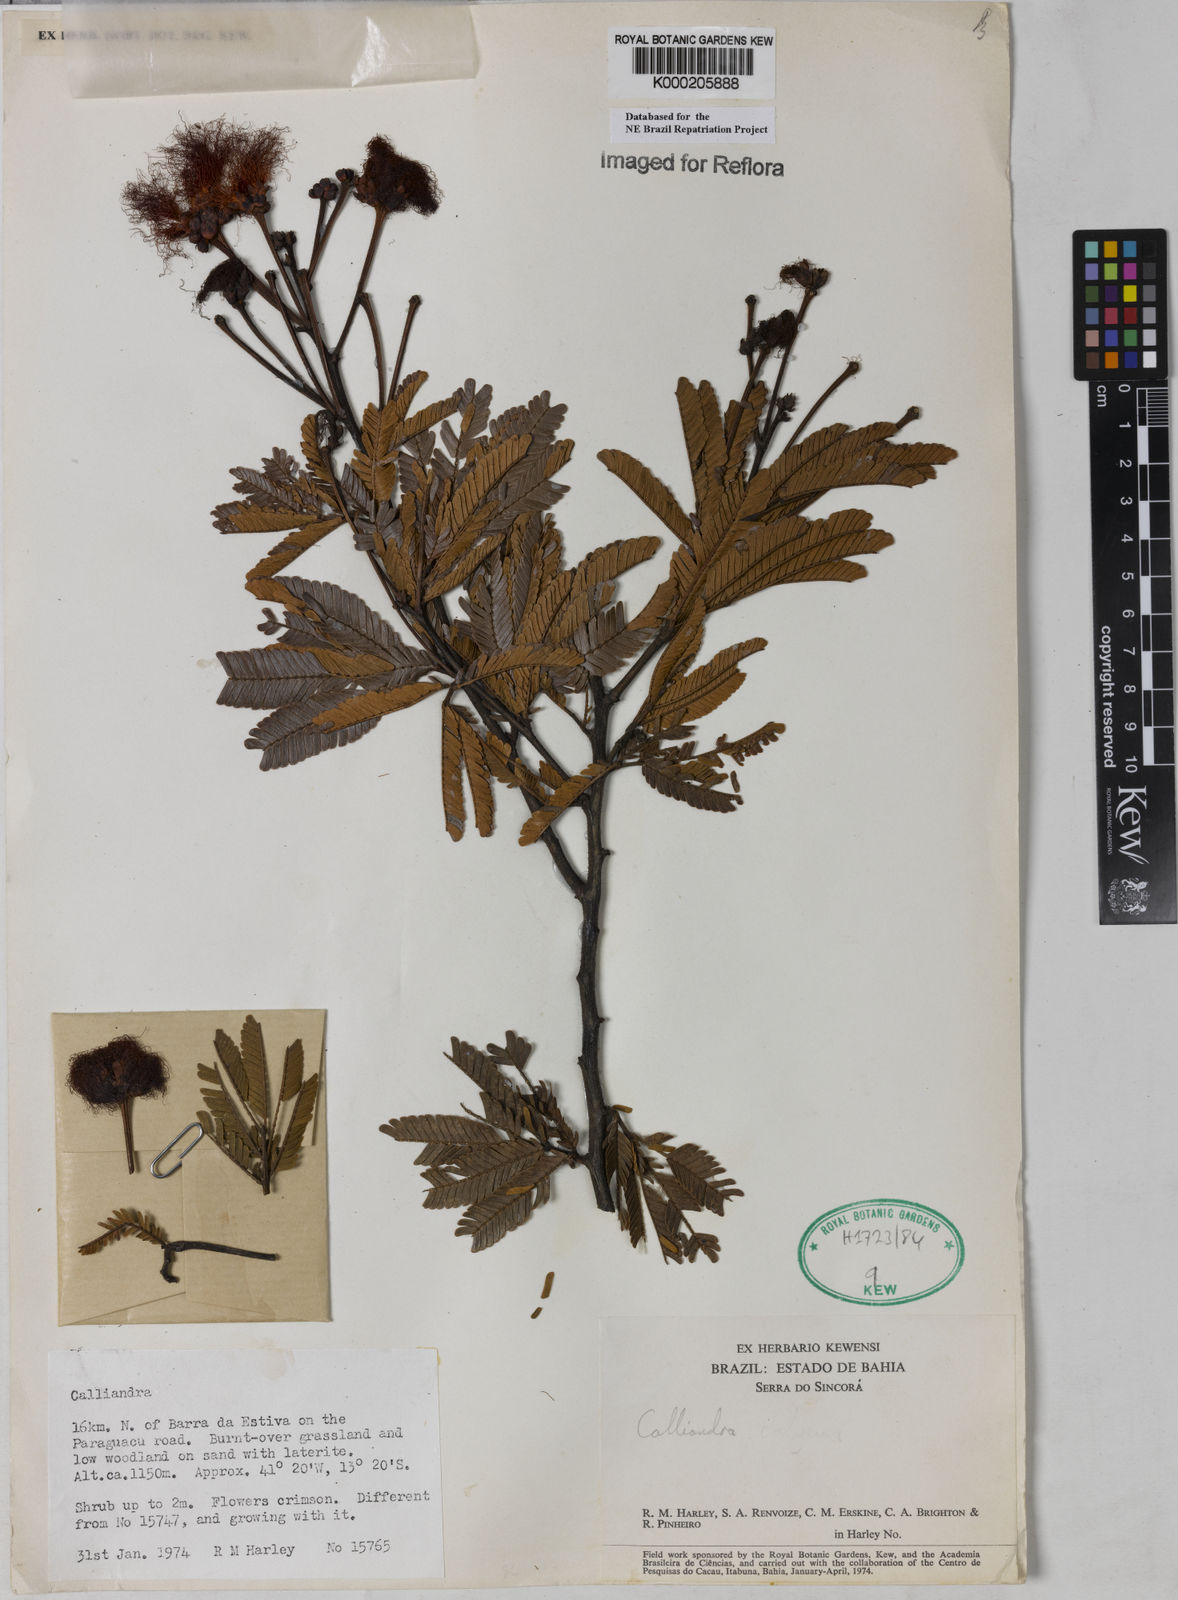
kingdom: Plantae
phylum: Tracheophyta
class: Magnoliopsida
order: Fabales
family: Fabaceae
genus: Calliandra
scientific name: Calliandra
